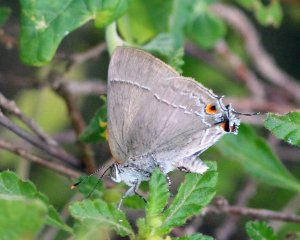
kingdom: Animalia
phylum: Arthropoda
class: Insecta
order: Lepidoptera
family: Lycaenidae
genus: Thecla
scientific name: Thecla marius
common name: Marius Hairstreak
